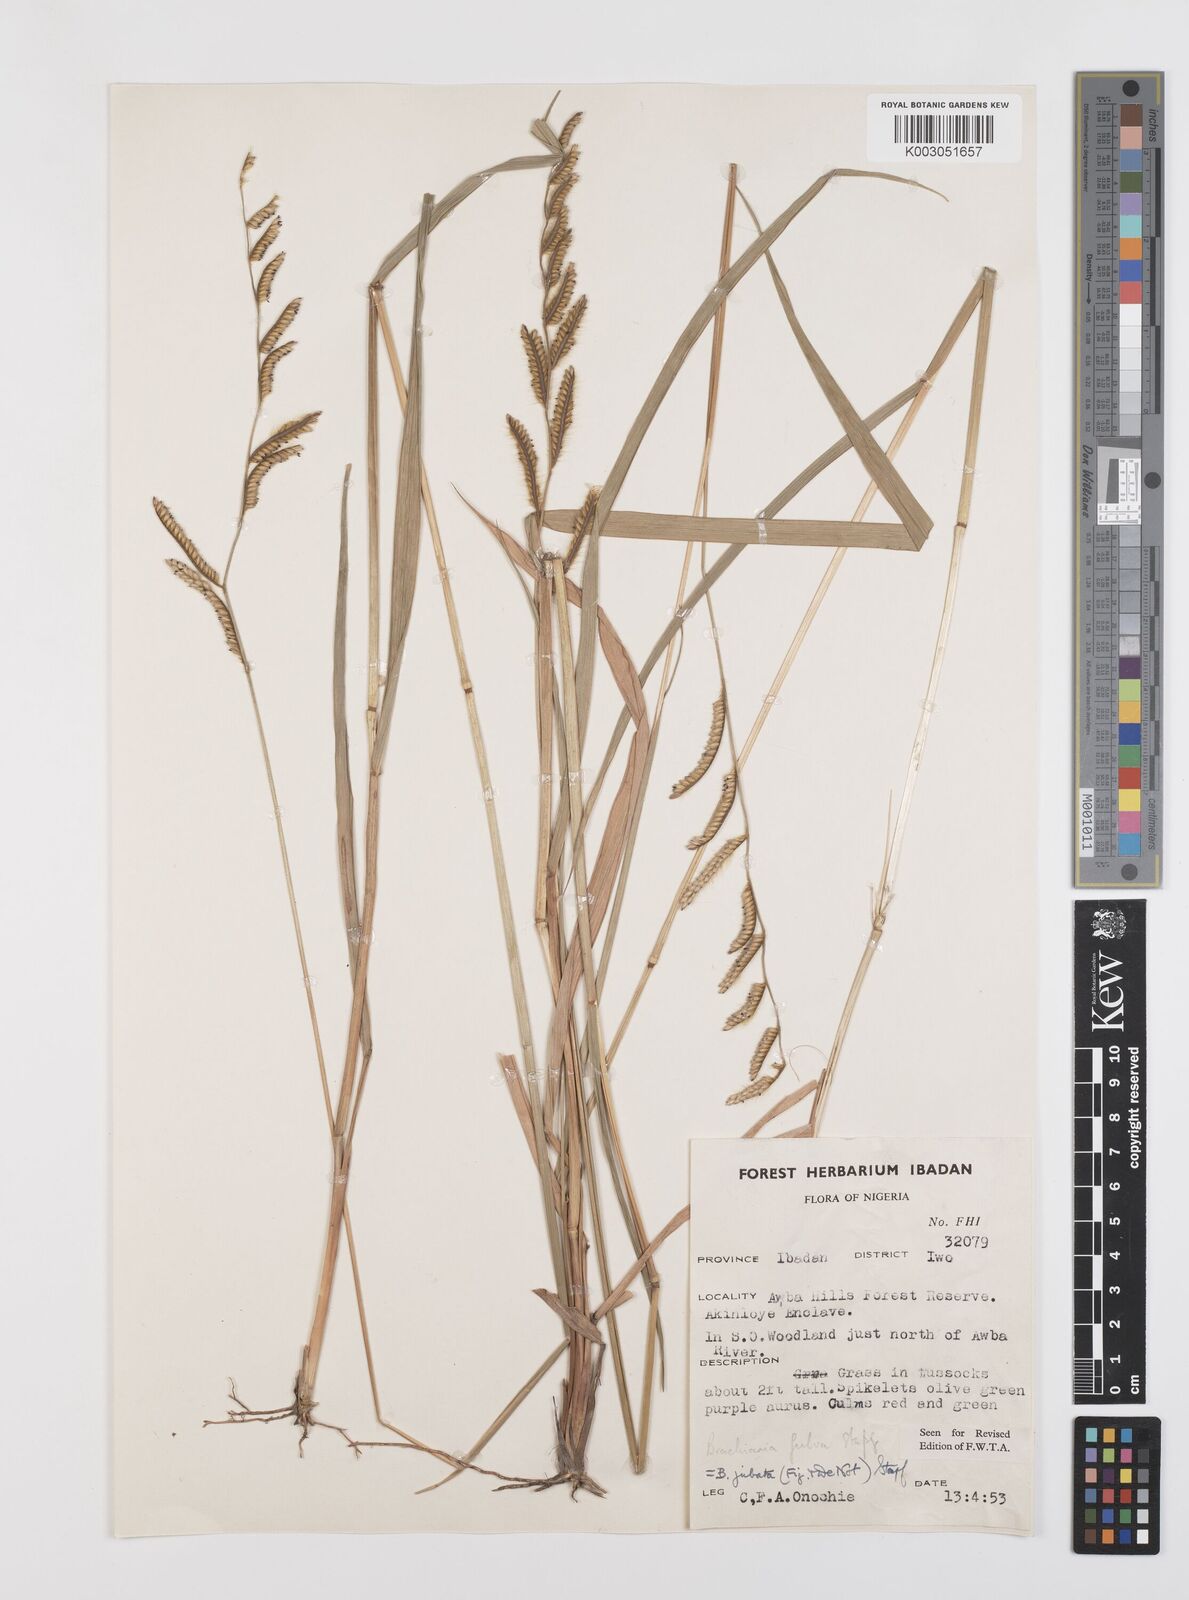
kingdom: Plantae
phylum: Tracheophyta
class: Liliopsida
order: Poales
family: Poaceae
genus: Urochloa
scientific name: Urochloa jubata
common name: Buffalograss
